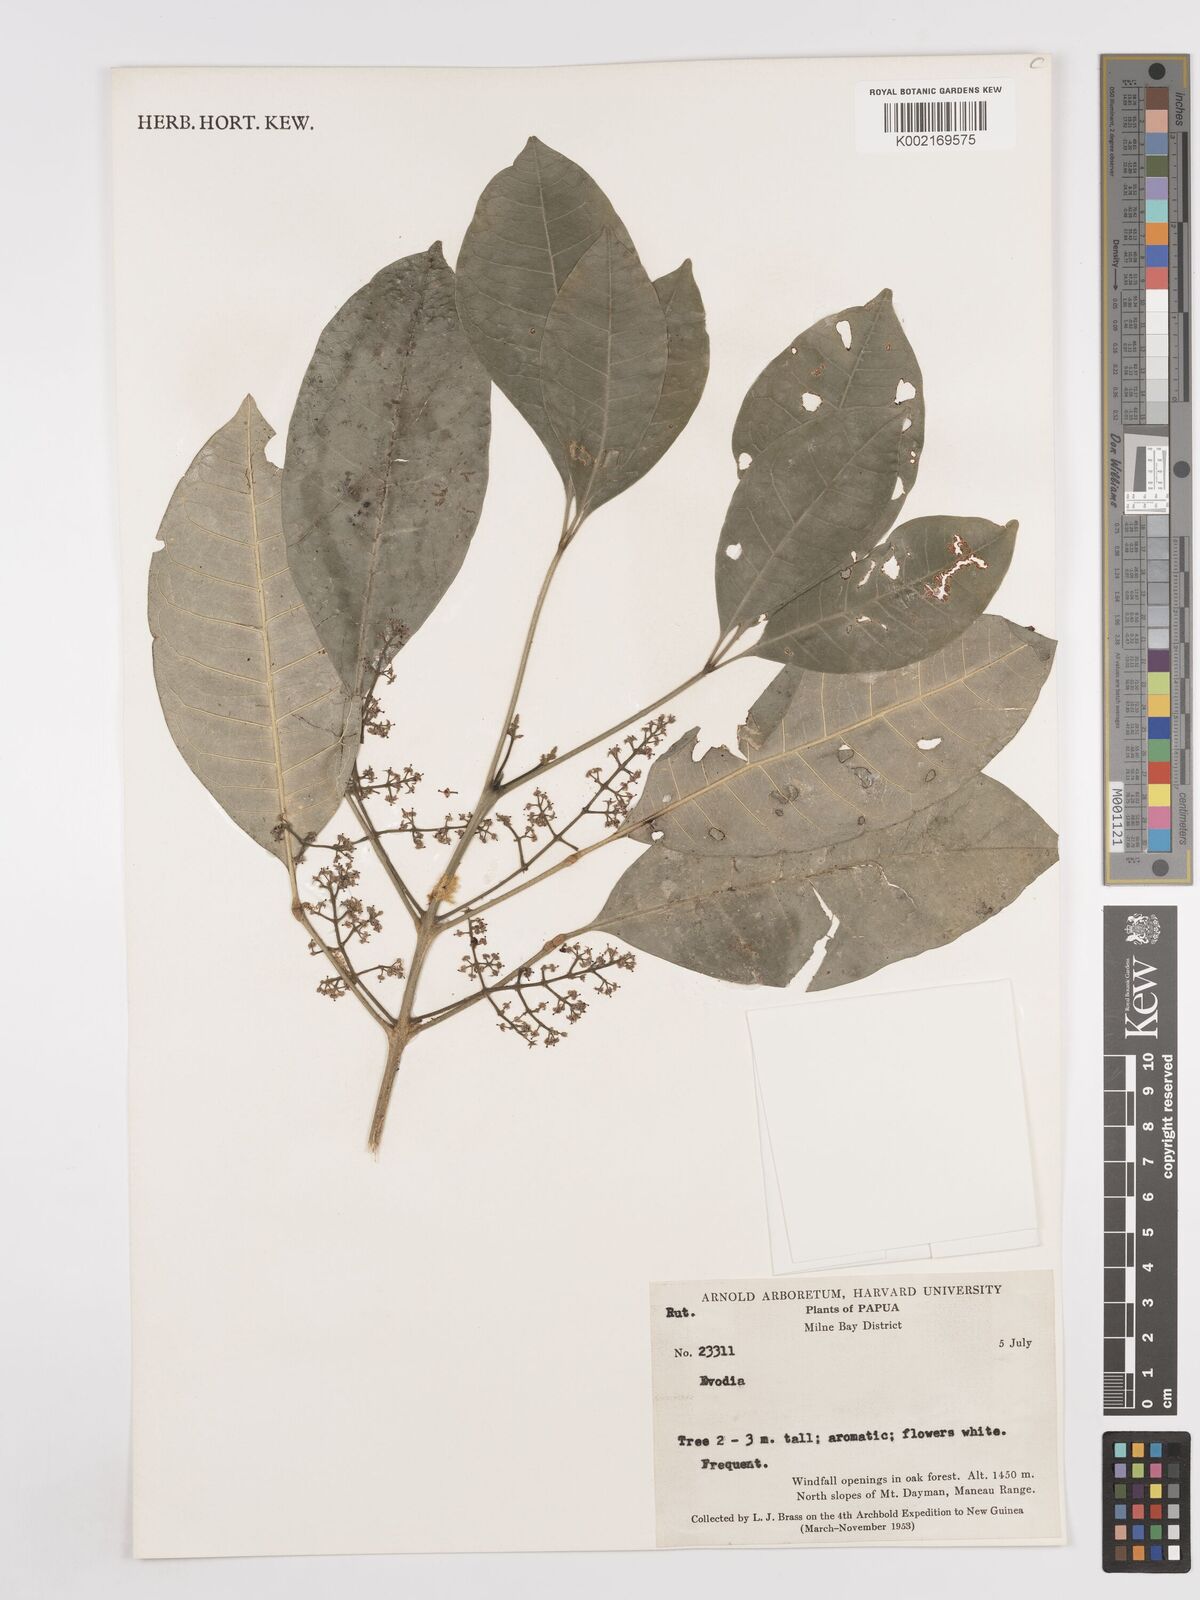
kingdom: Plantae
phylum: Tracheophyta
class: Magnoliopsida
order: Sapindales
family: Rutaceae
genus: Euodia
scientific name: Euodia
